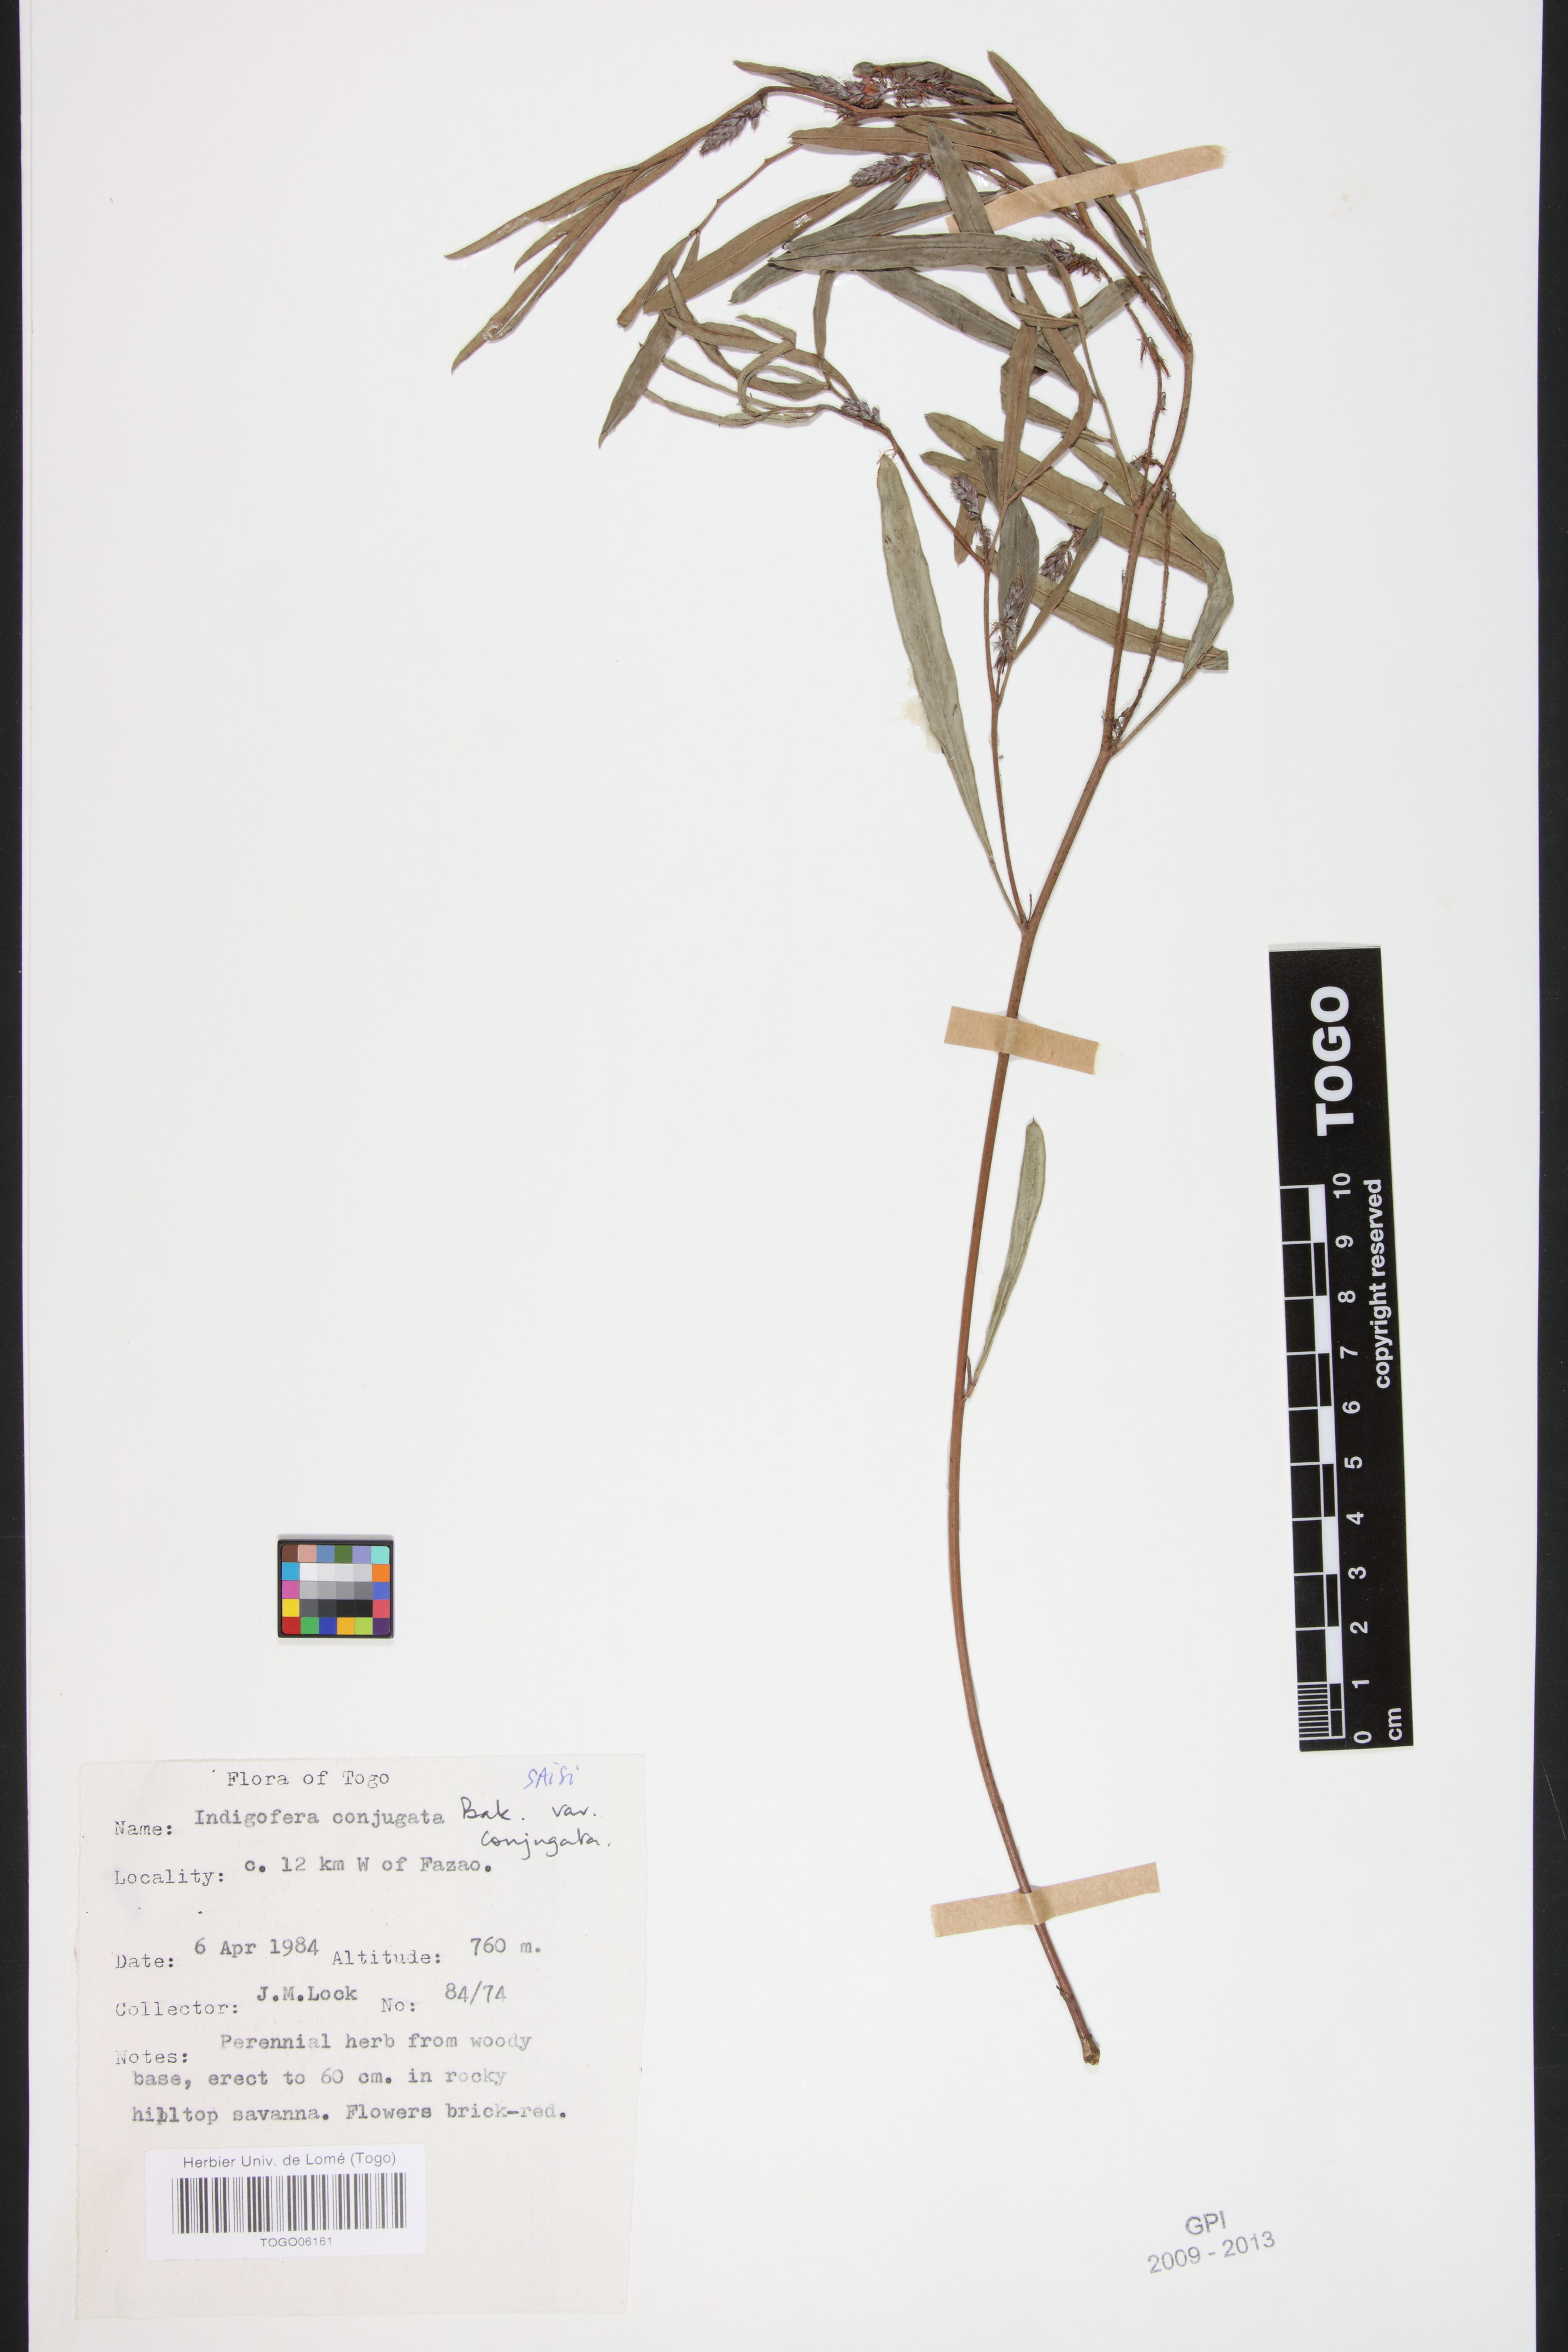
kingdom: Plantae
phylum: Tracheophyta
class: Magnoliopsida
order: Fabales
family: Fabaceae
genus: Indigofera
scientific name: Indigofera conjugata
